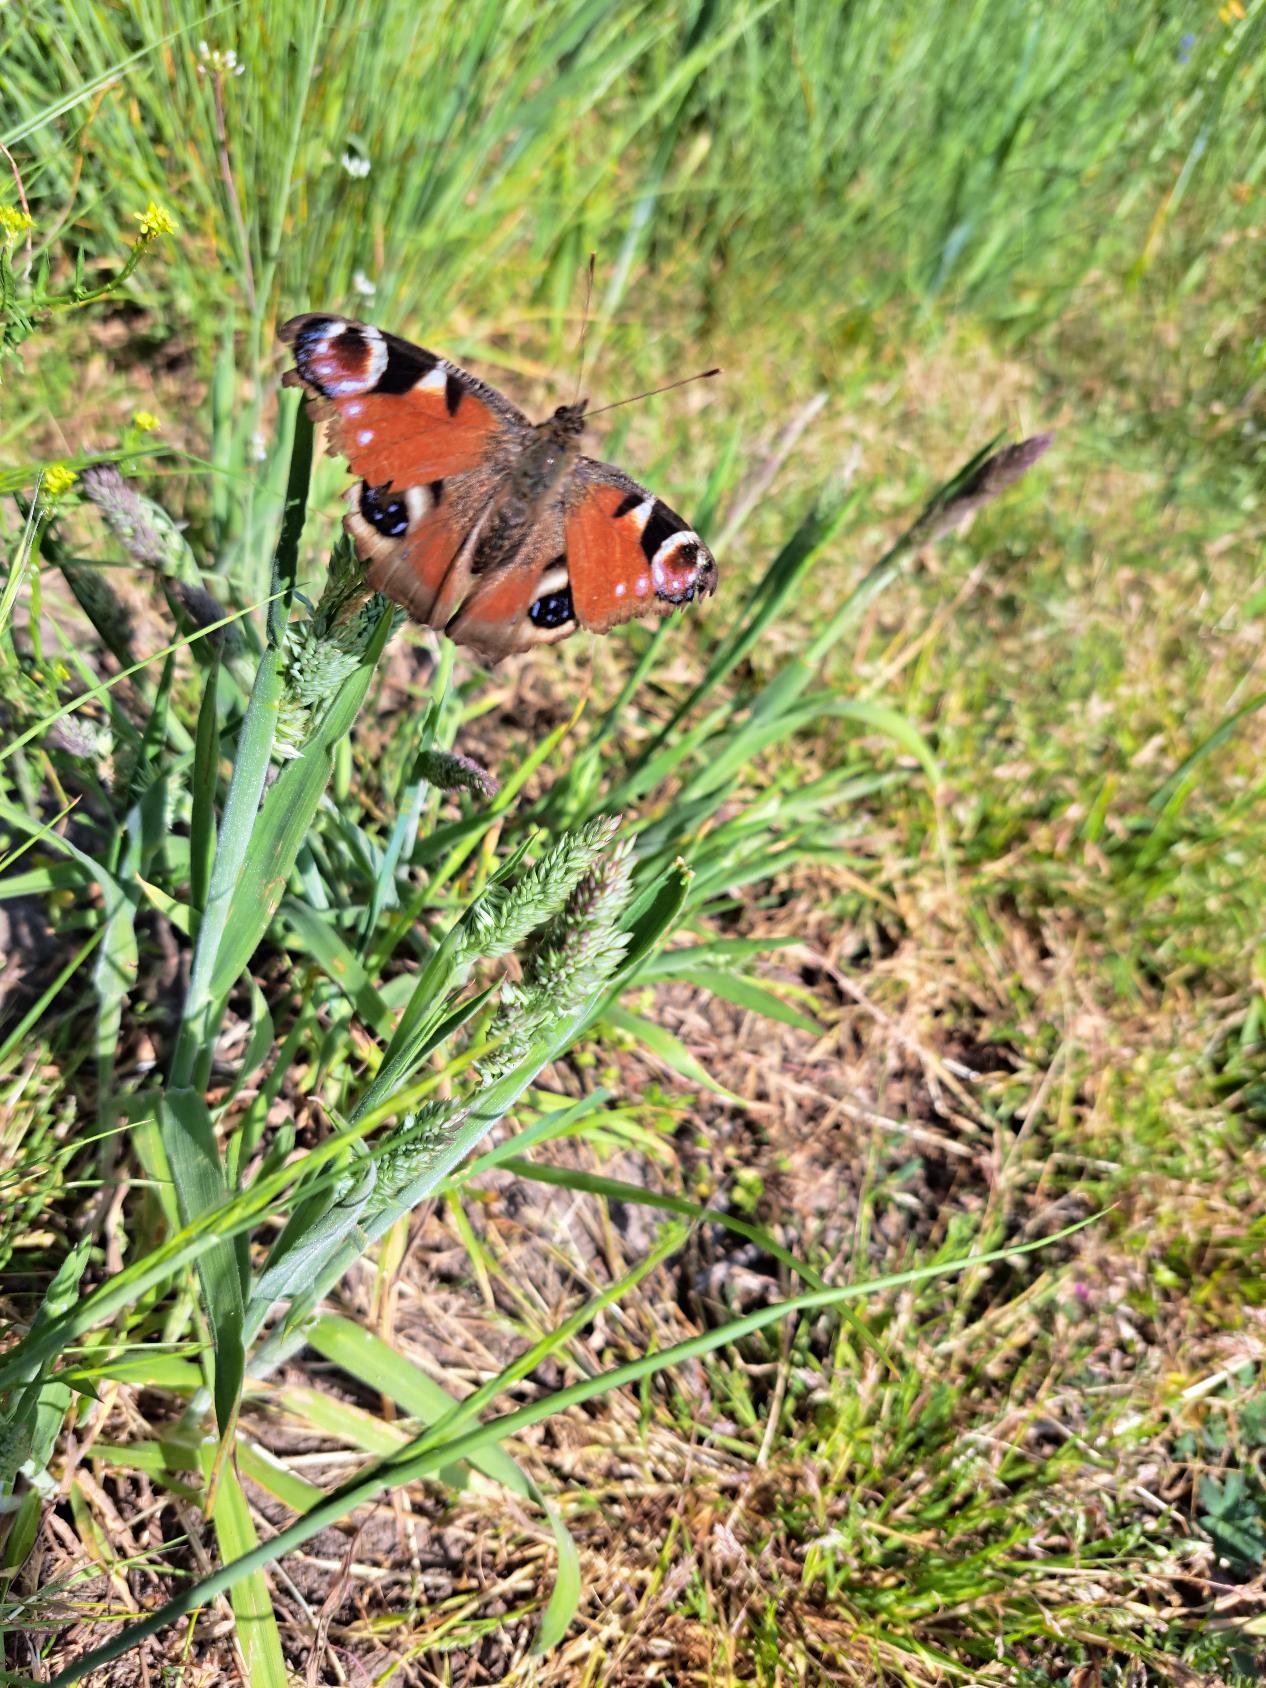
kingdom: Animalia
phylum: Arthropoda
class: Insecta
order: Lepidoptera
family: Nymphalidae
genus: Aglais
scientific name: Aglais io
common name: Dagpåfugleøje
